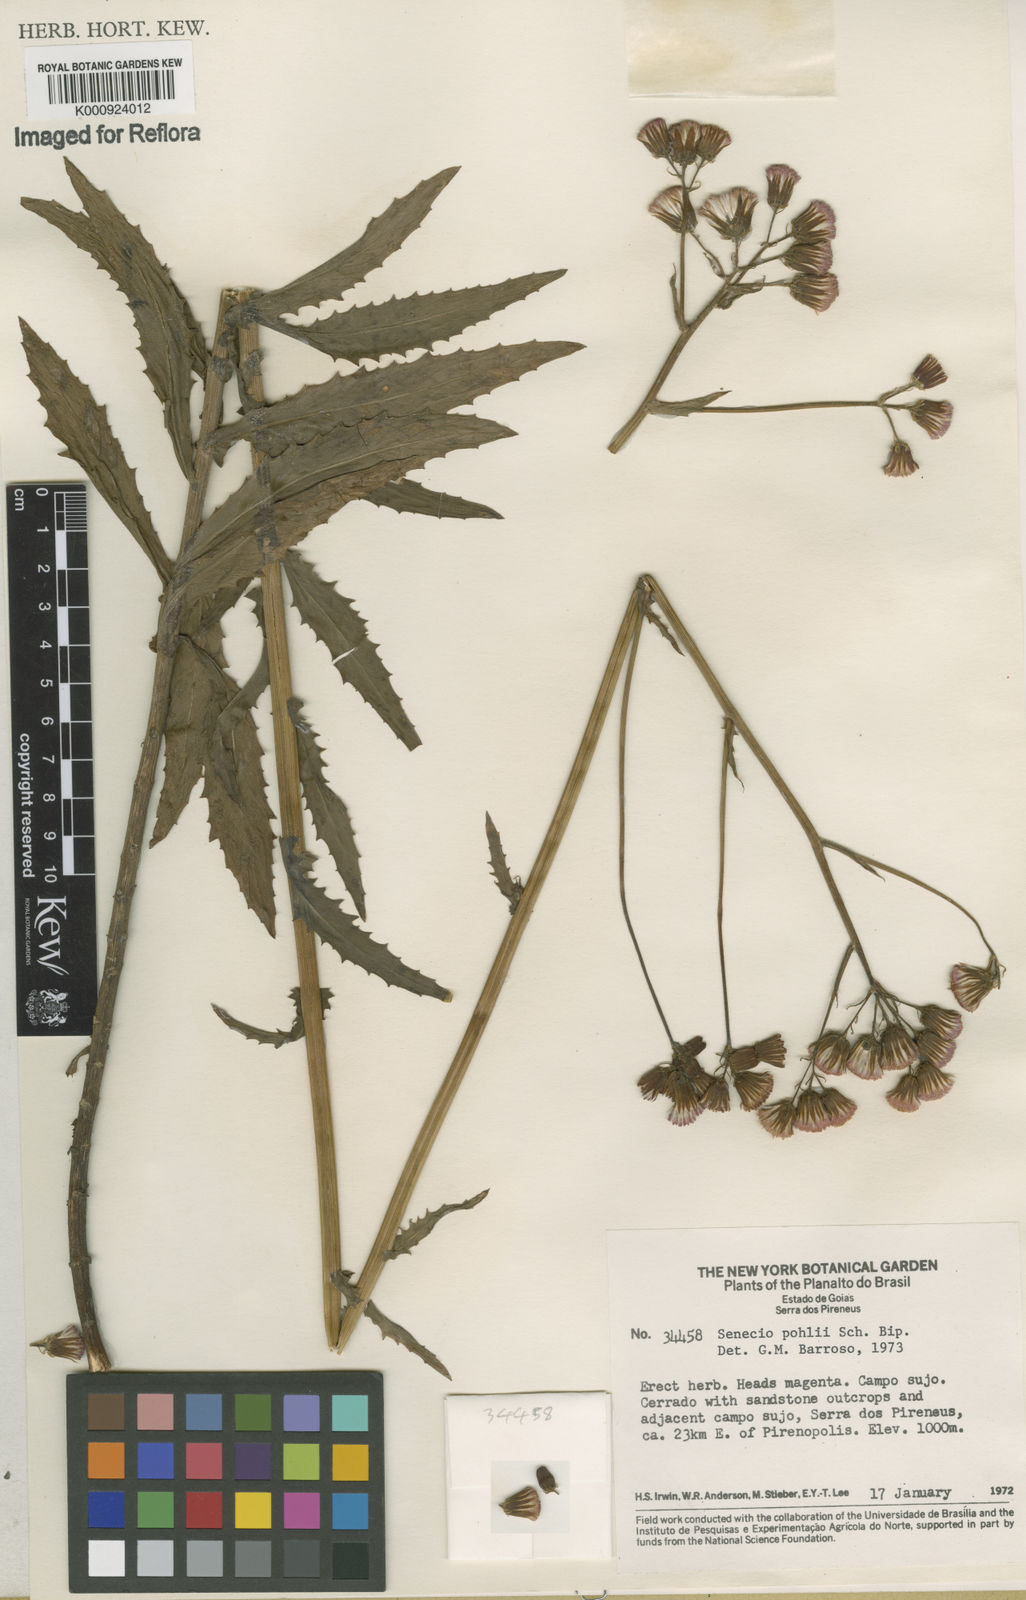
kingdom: Plantae
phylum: Tracheophyta
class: Magnoliopsida
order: Asterales
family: Asteraceae
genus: Pseudogynoxys
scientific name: Pseudogynoxys pohlii
